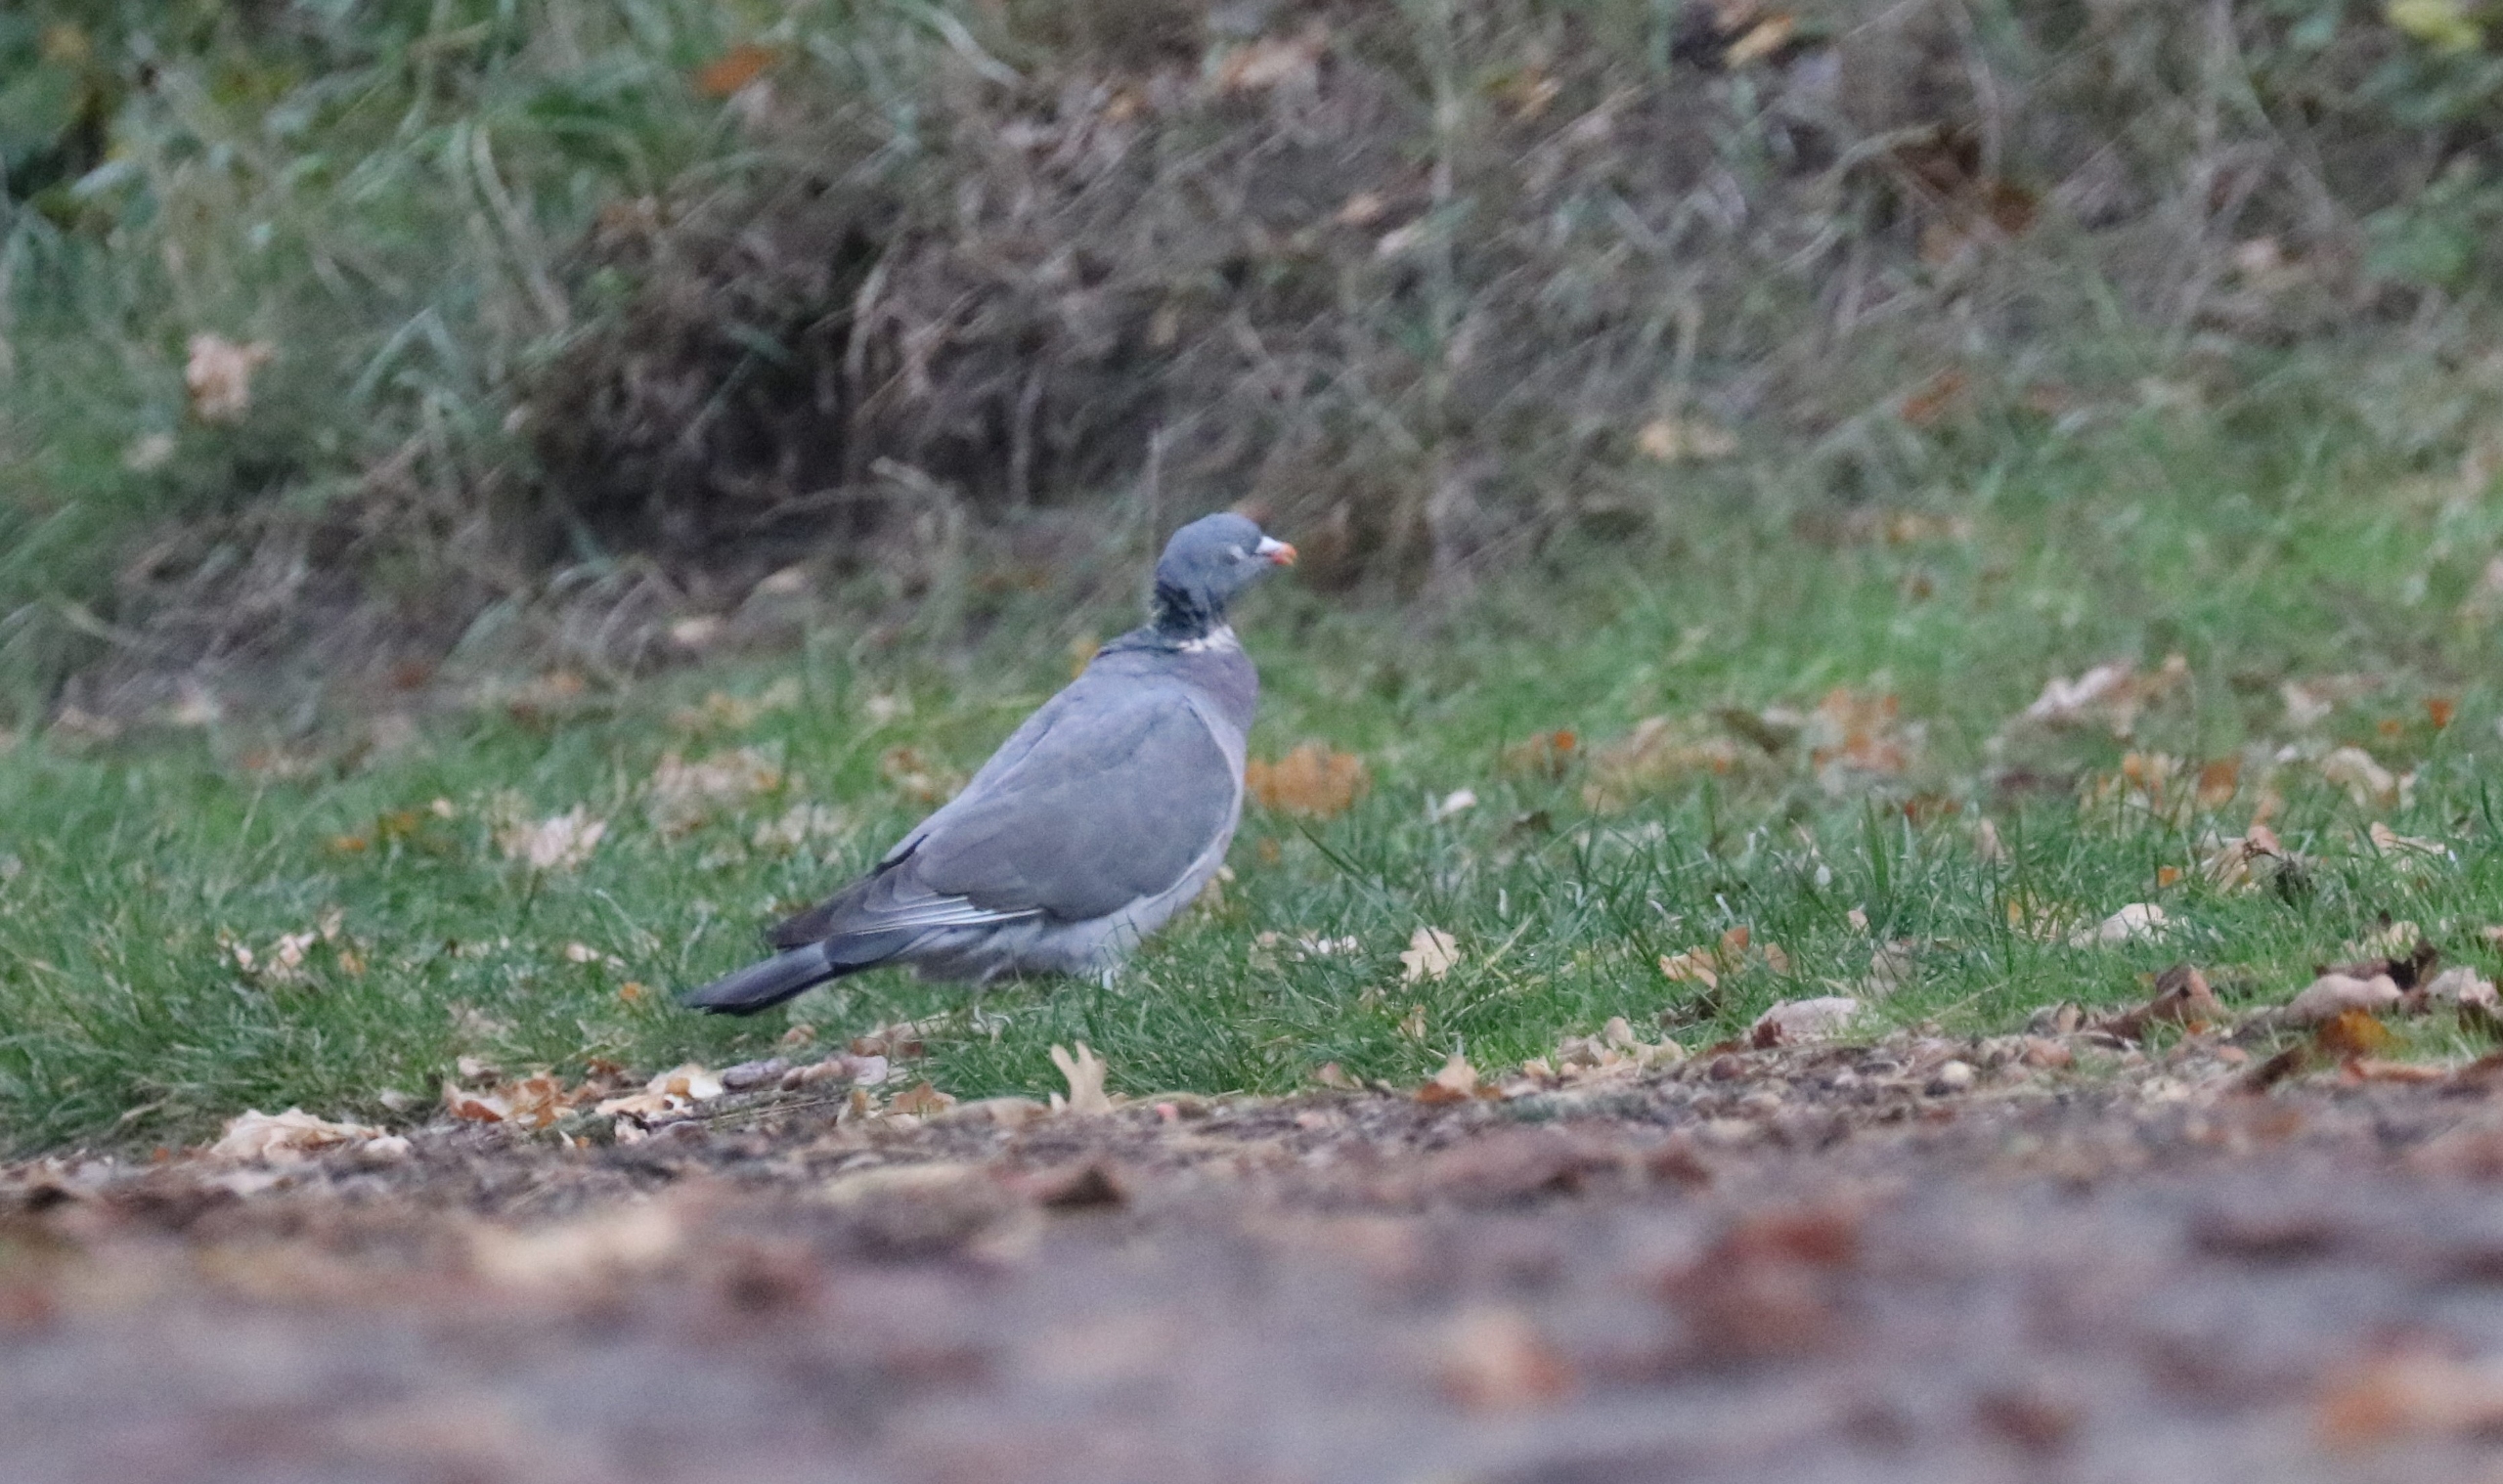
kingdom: Animalia
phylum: Chordata
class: Aves
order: Columbiformes
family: Columbidae
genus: Columba
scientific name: Columba palumbus
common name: Ringdue
